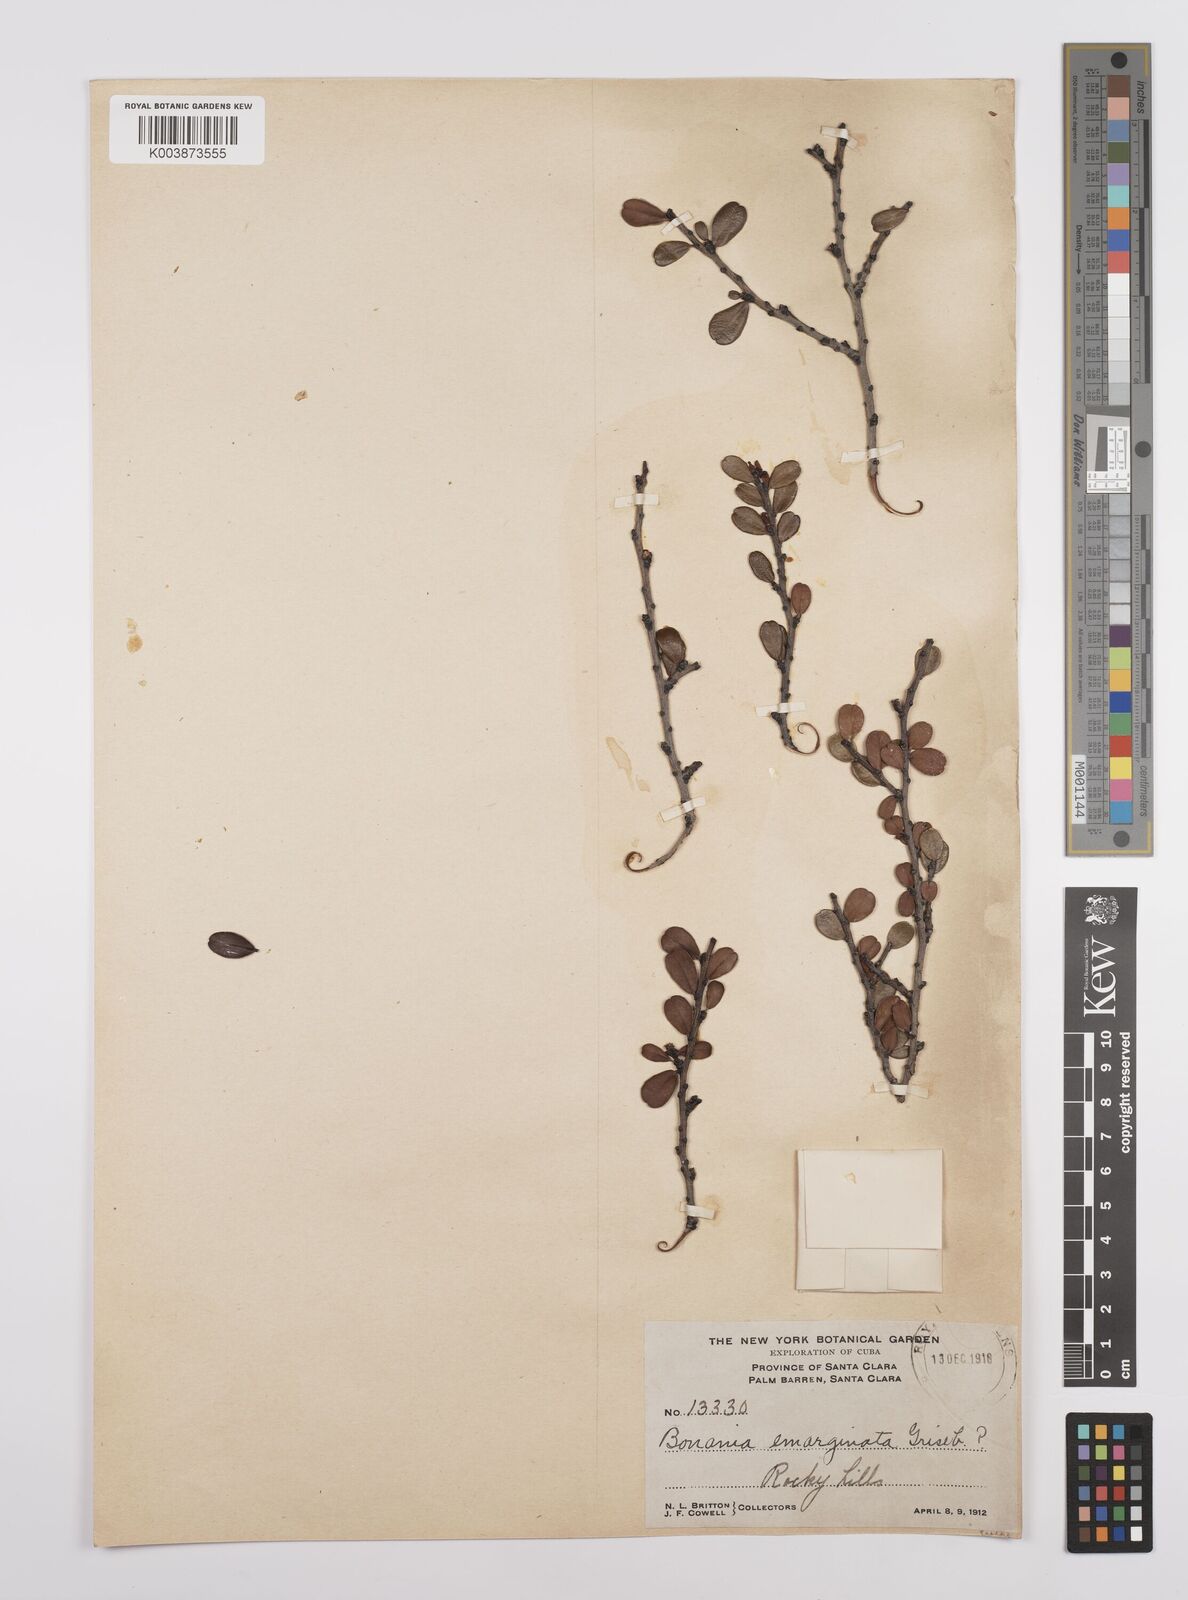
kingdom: Plantae
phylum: Tracheophyta
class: Magnoliopsida
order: Malpighiales
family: Euphorbiaceae
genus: Bonania
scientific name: Bonania emarginata
